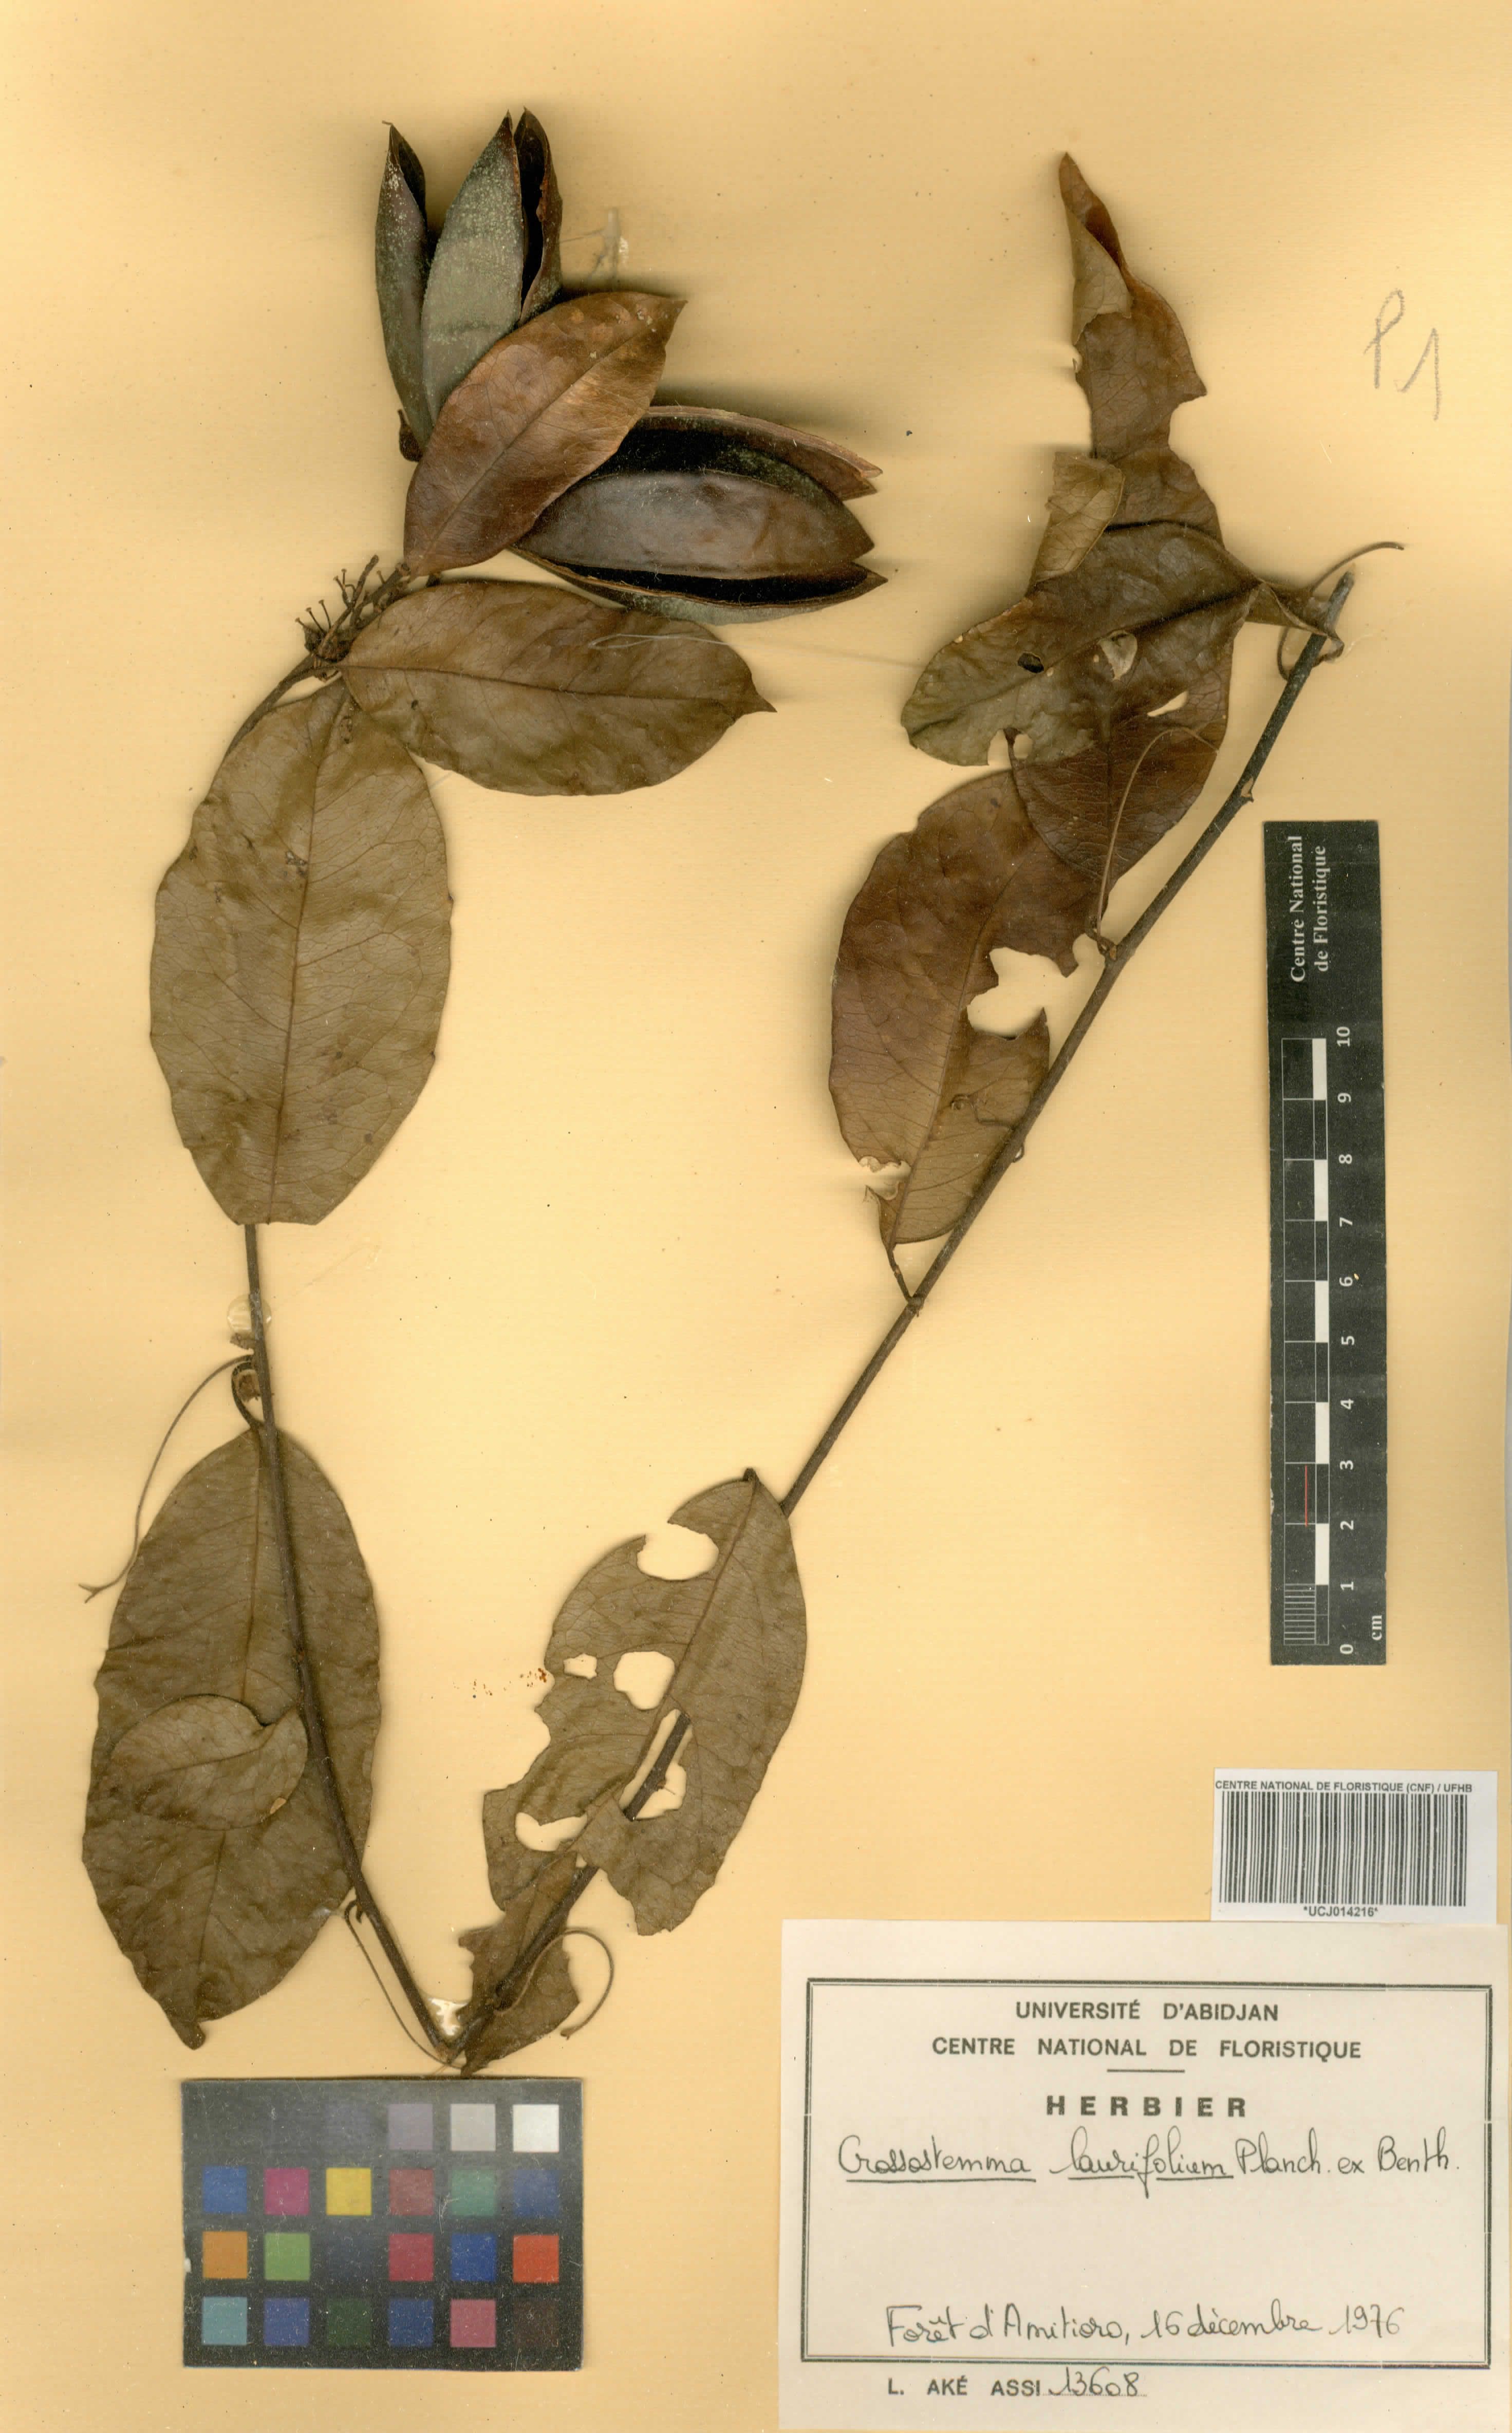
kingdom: Plantae
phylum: Tracheophyta
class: Magnoliopsida
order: Malpighiales
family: Passifloraceae
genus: Crossostemma
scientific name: Crossostemma laurifolium
